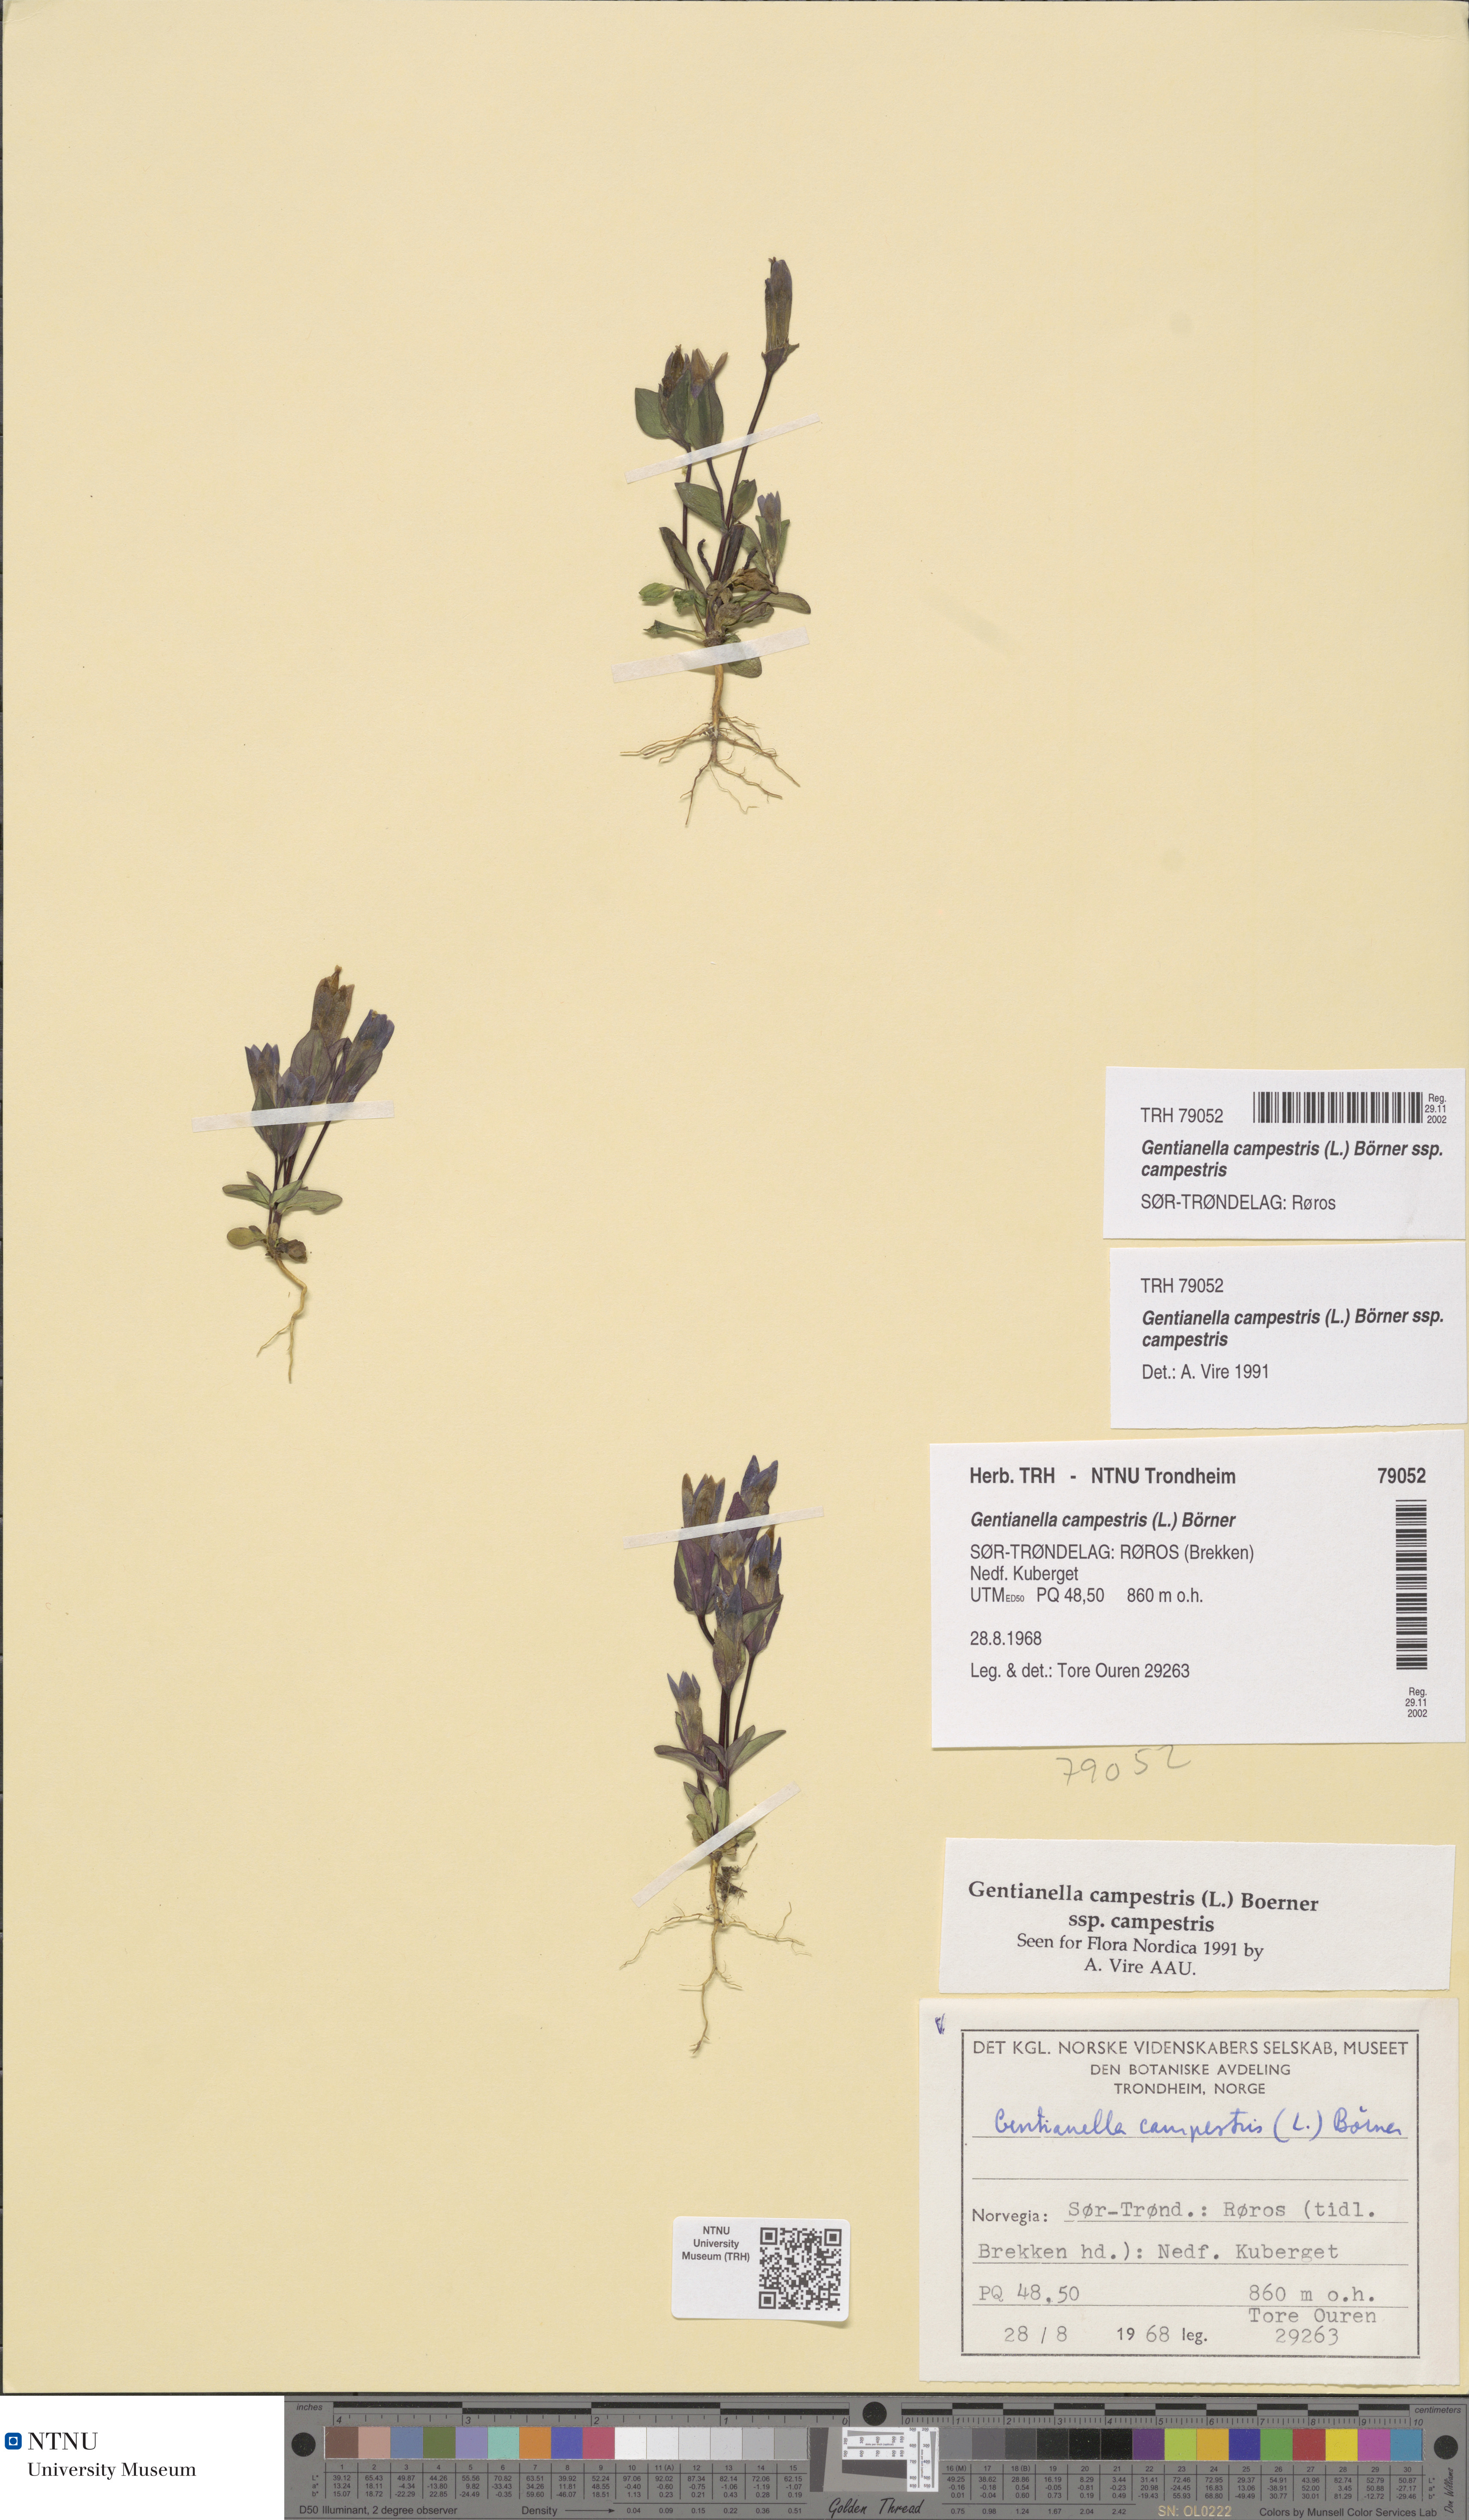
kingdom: Plantae
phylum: Tracheophyta
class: Magnoliopsida
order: Gentianales
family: Gentianaceae
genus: Gentianella
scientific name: Gentianella campestris
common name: Field gentian
